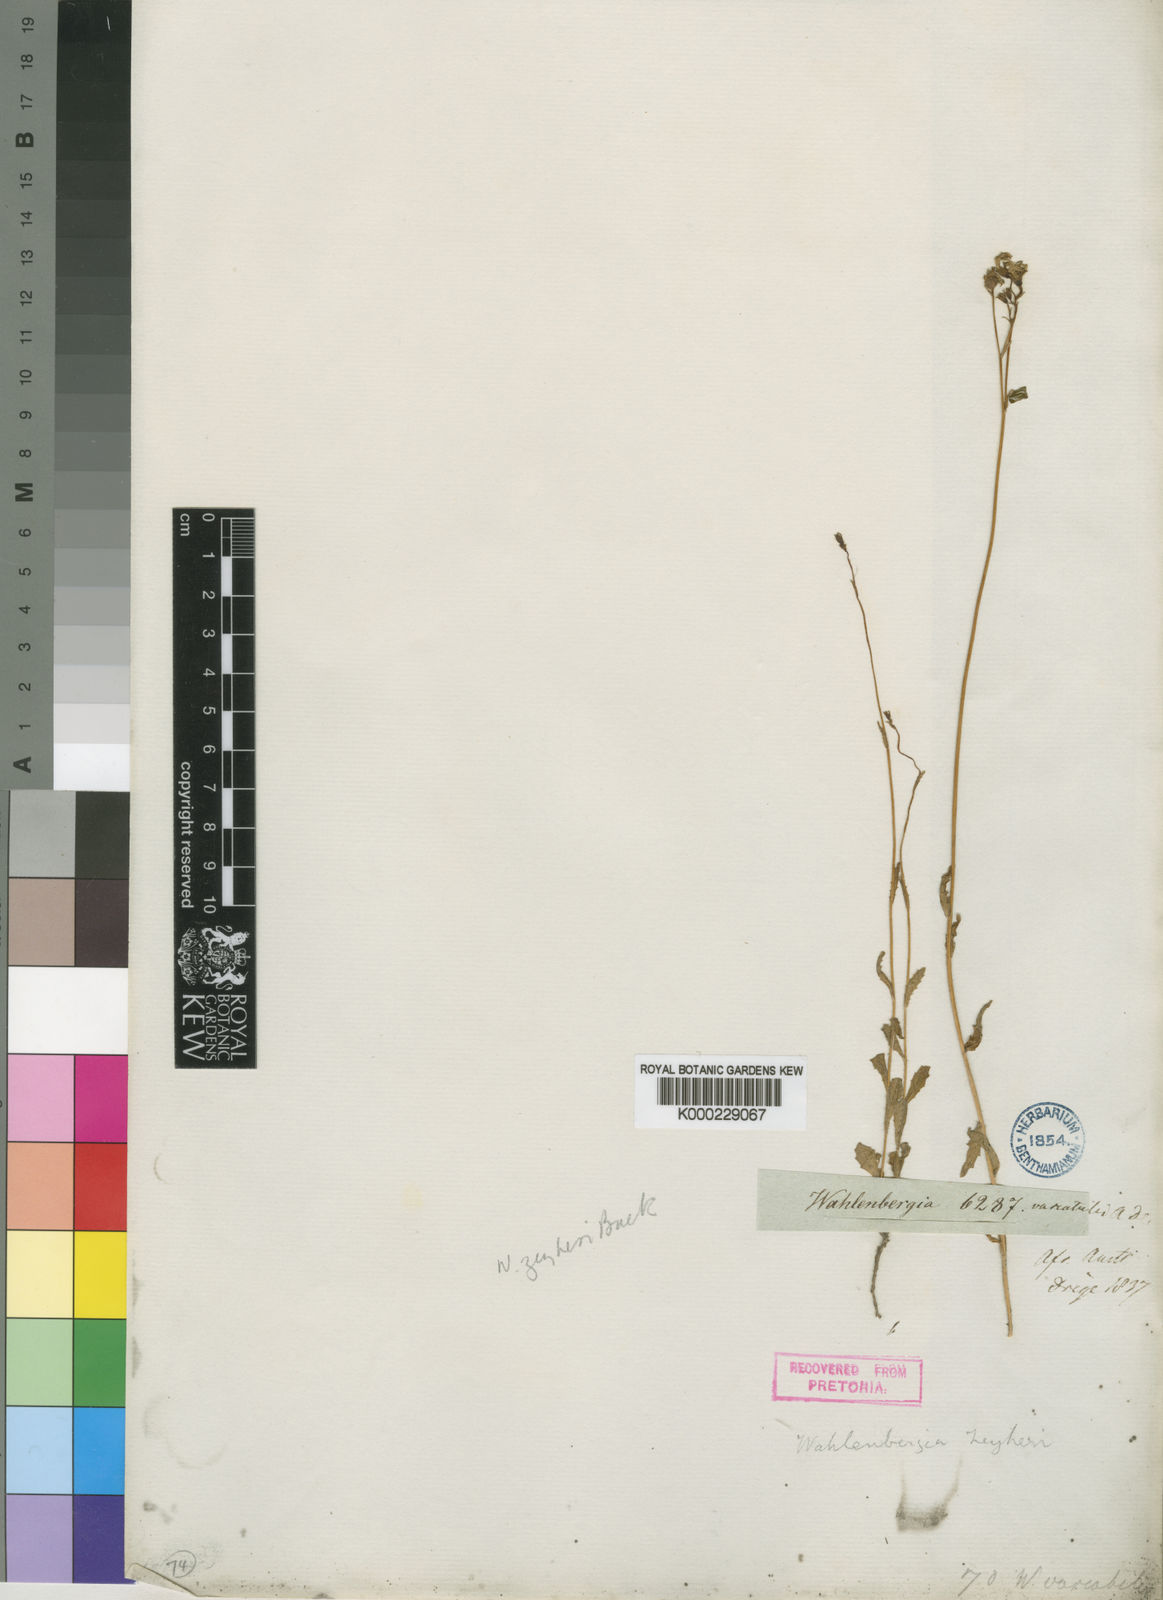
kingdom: Plantae
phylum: Tracheophyta
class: Magnoliopsida
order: Asterales
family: Campanulaceae
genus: Wahlenbergia
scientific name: Wahlenbergia krebsii
